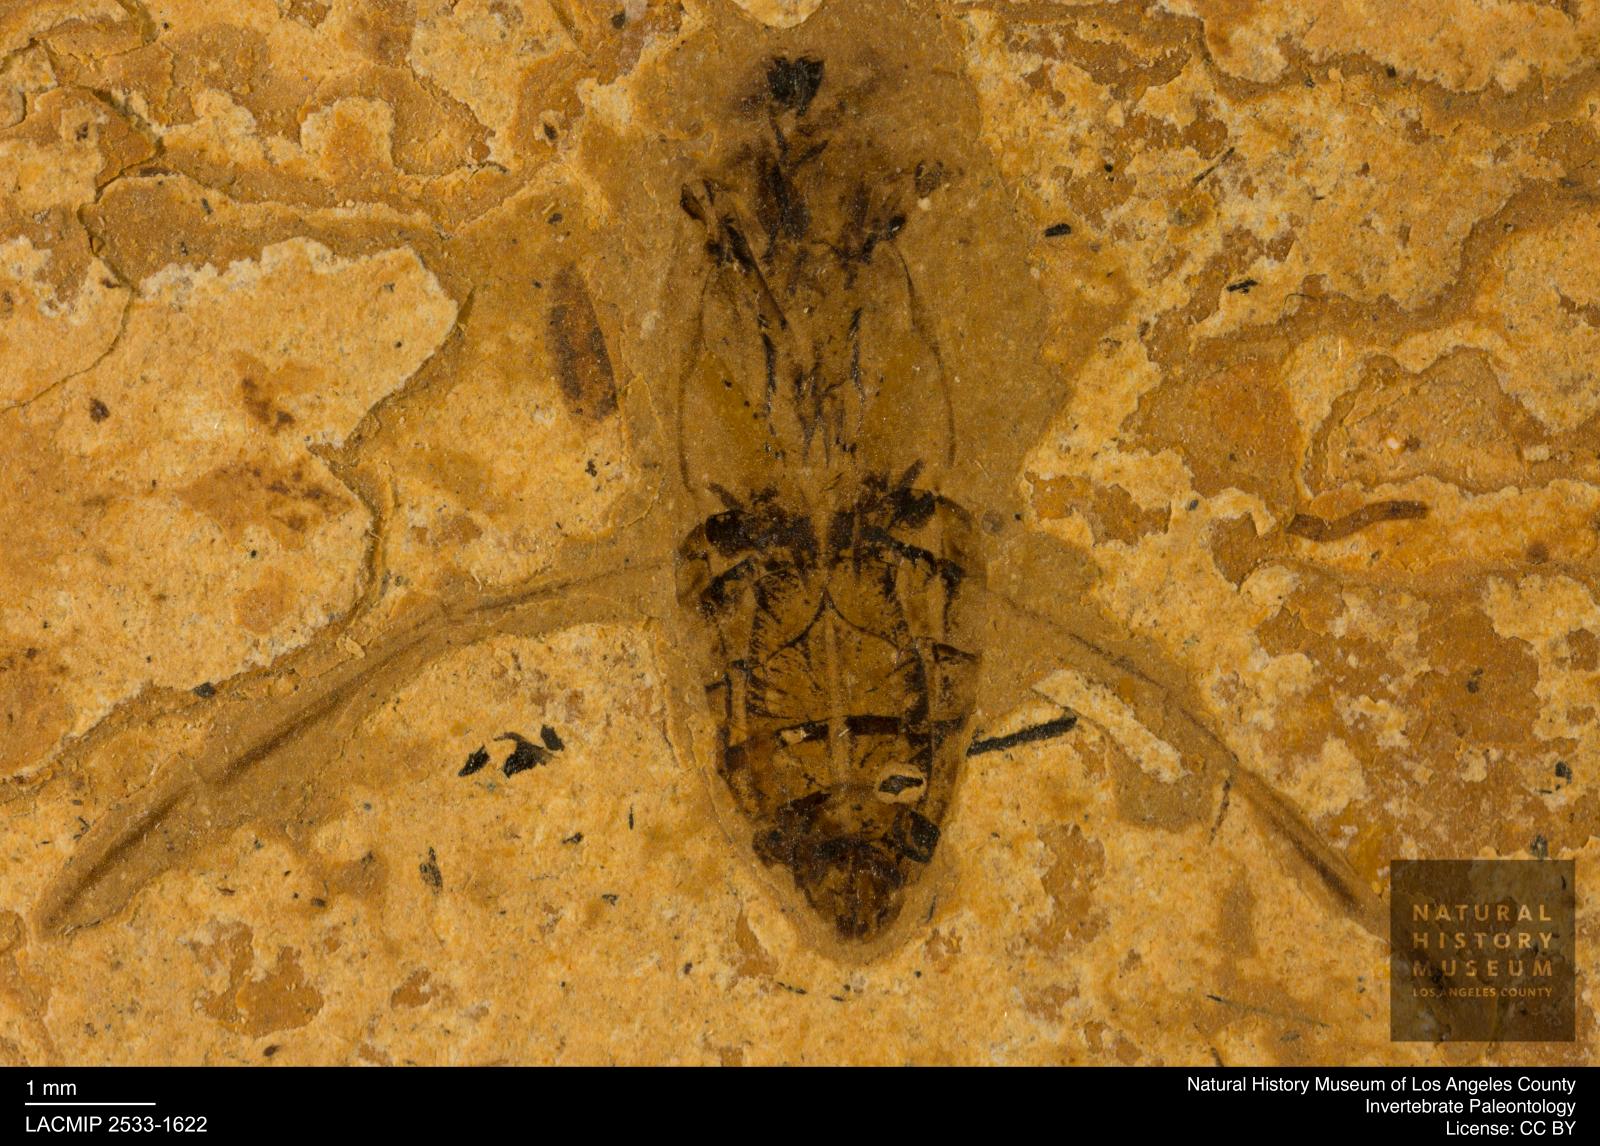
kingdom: Animalia
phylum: Arthropoda
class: Insecta
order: Hemiptera
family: Notonectidae
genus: Notonecta
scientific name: Notonecta
